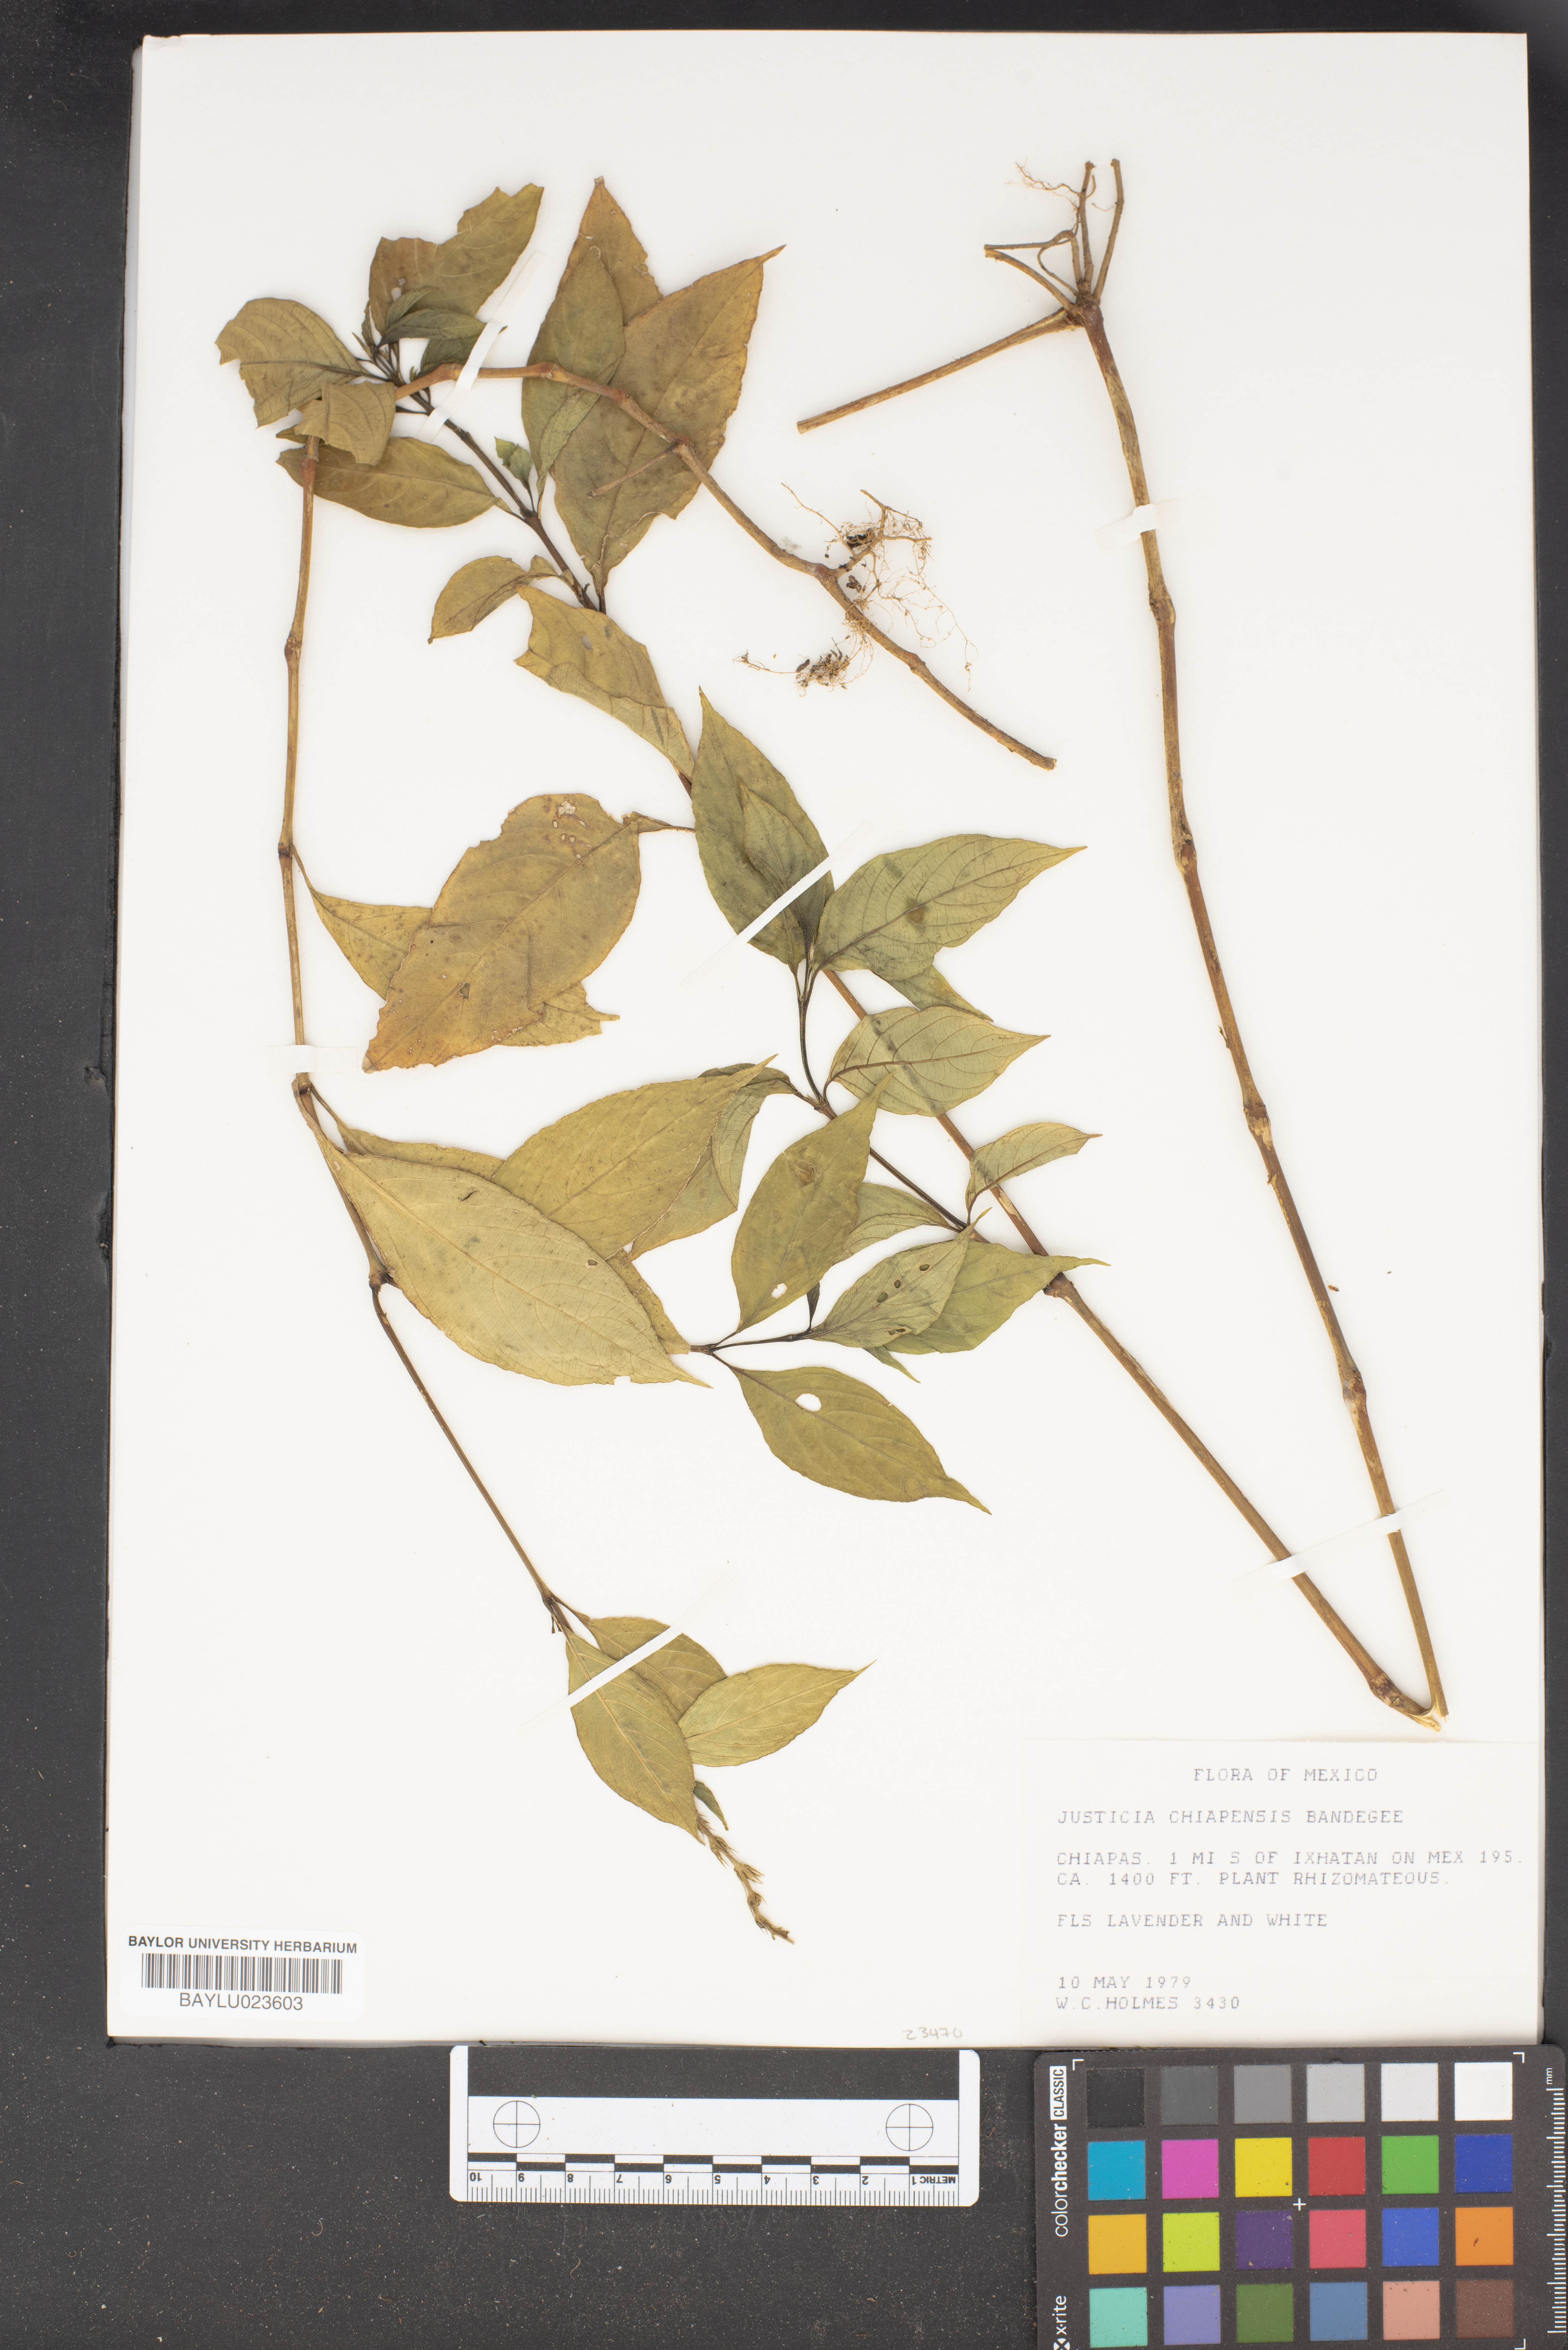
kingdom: Plantae
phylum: Tracheophyta
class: Magnoliopsida
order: Lamiales
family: Acanthaceae
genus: Dianthera
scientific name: Dianthera candelariae
